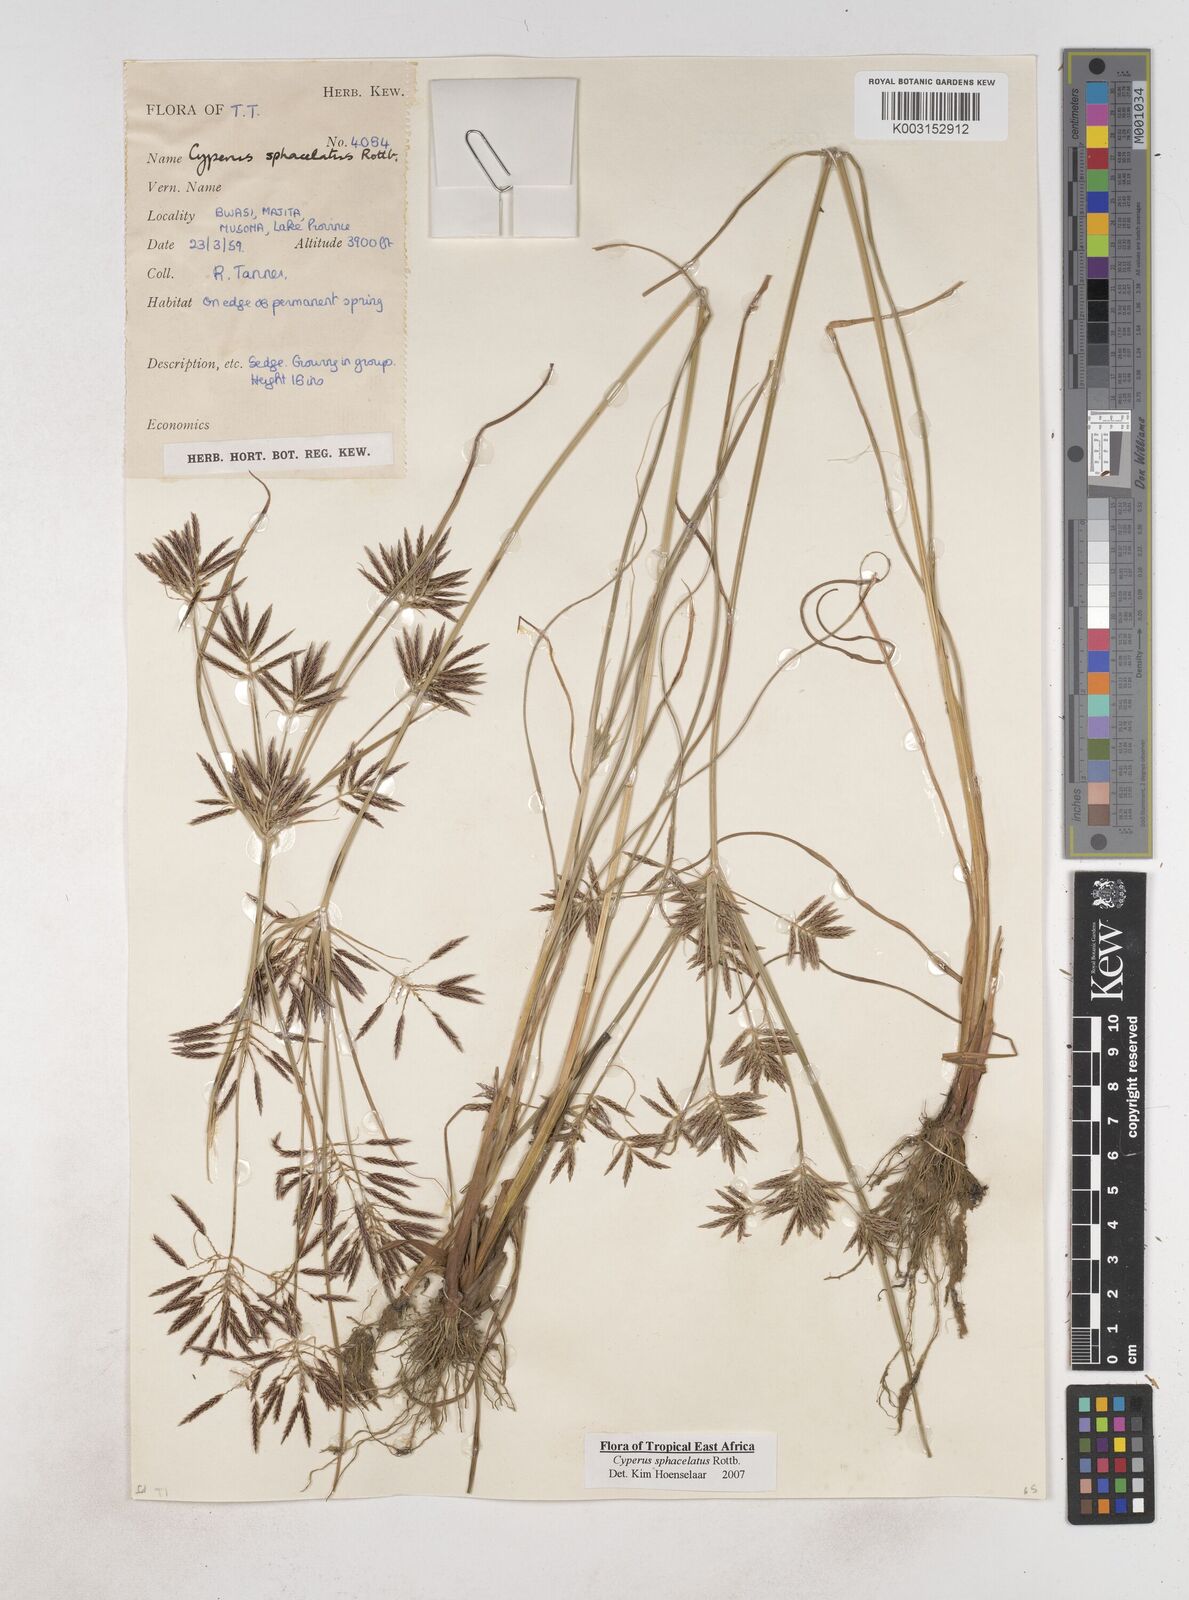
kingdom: Plantae
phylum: Tracheophyta
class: Liliopsida
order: Poales
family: Cyperaceae
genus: Cyperus
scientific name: Cyperus sphacelatus
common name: Roadside flatsedge
